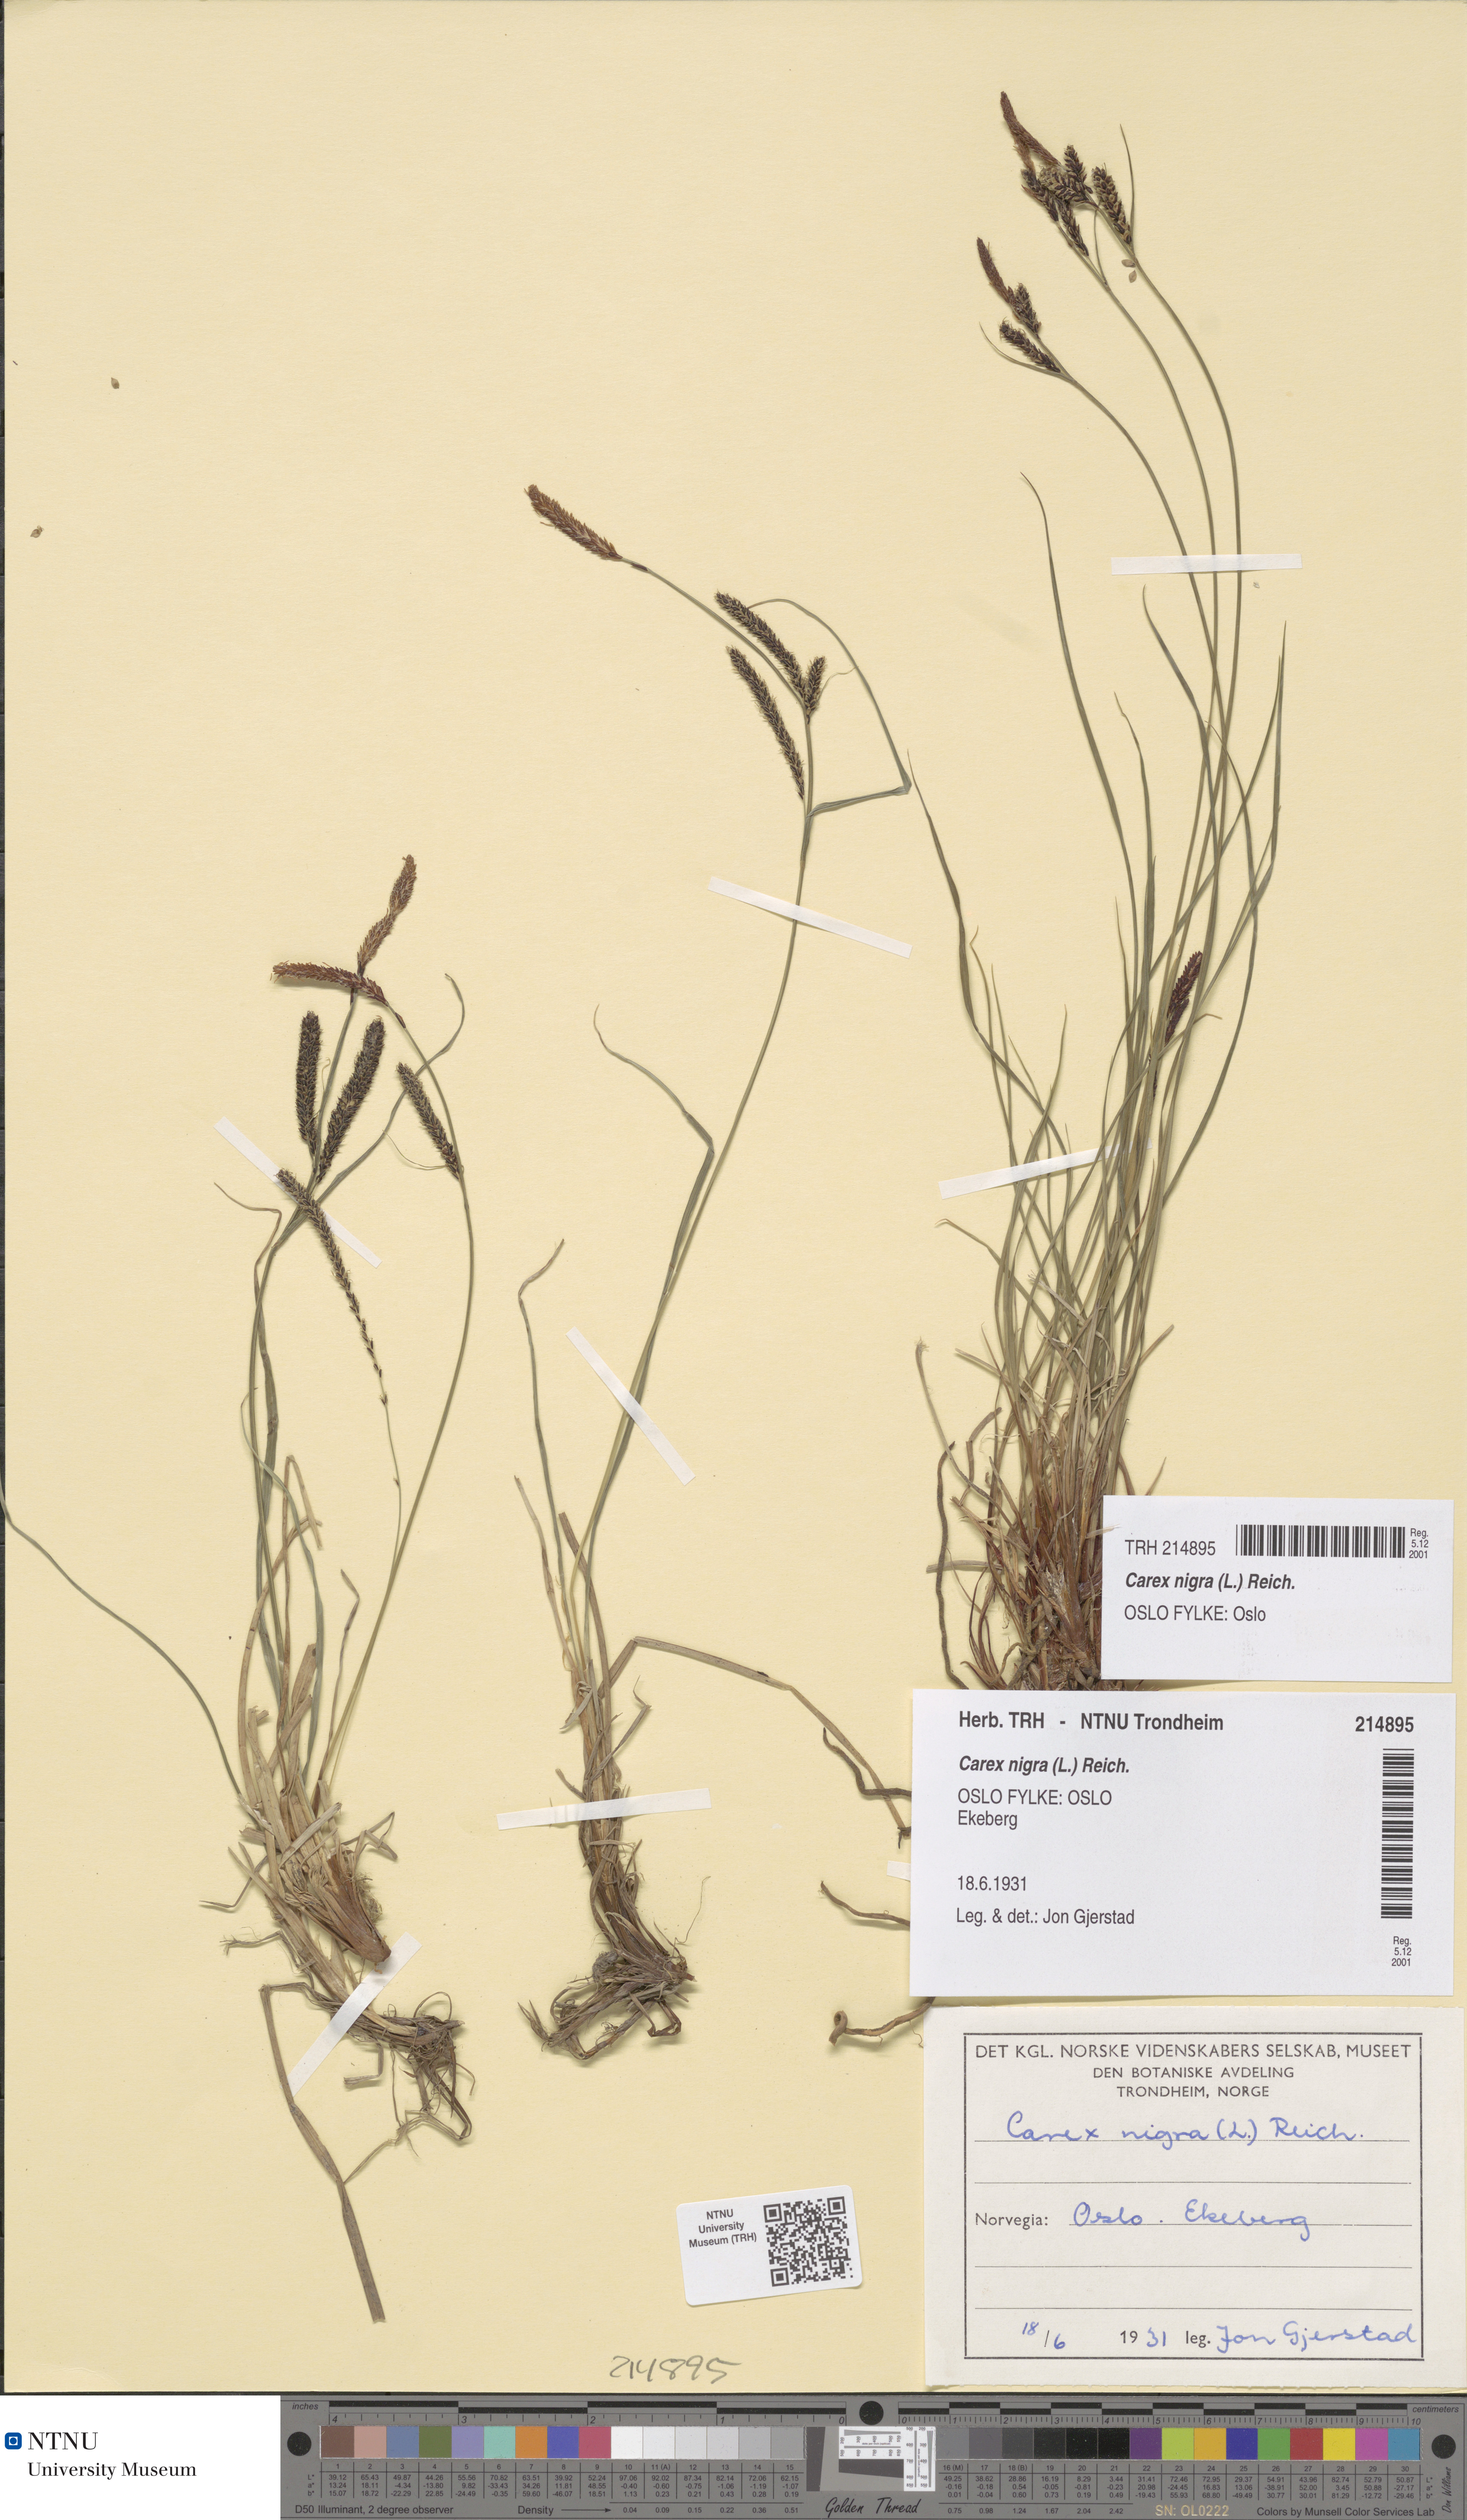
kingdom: Plantae
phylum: Tracheophyta
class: Liliopsida
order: Poales
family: Cyperaceae
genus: Carex
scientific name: Carex nigra
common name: Common sedge
